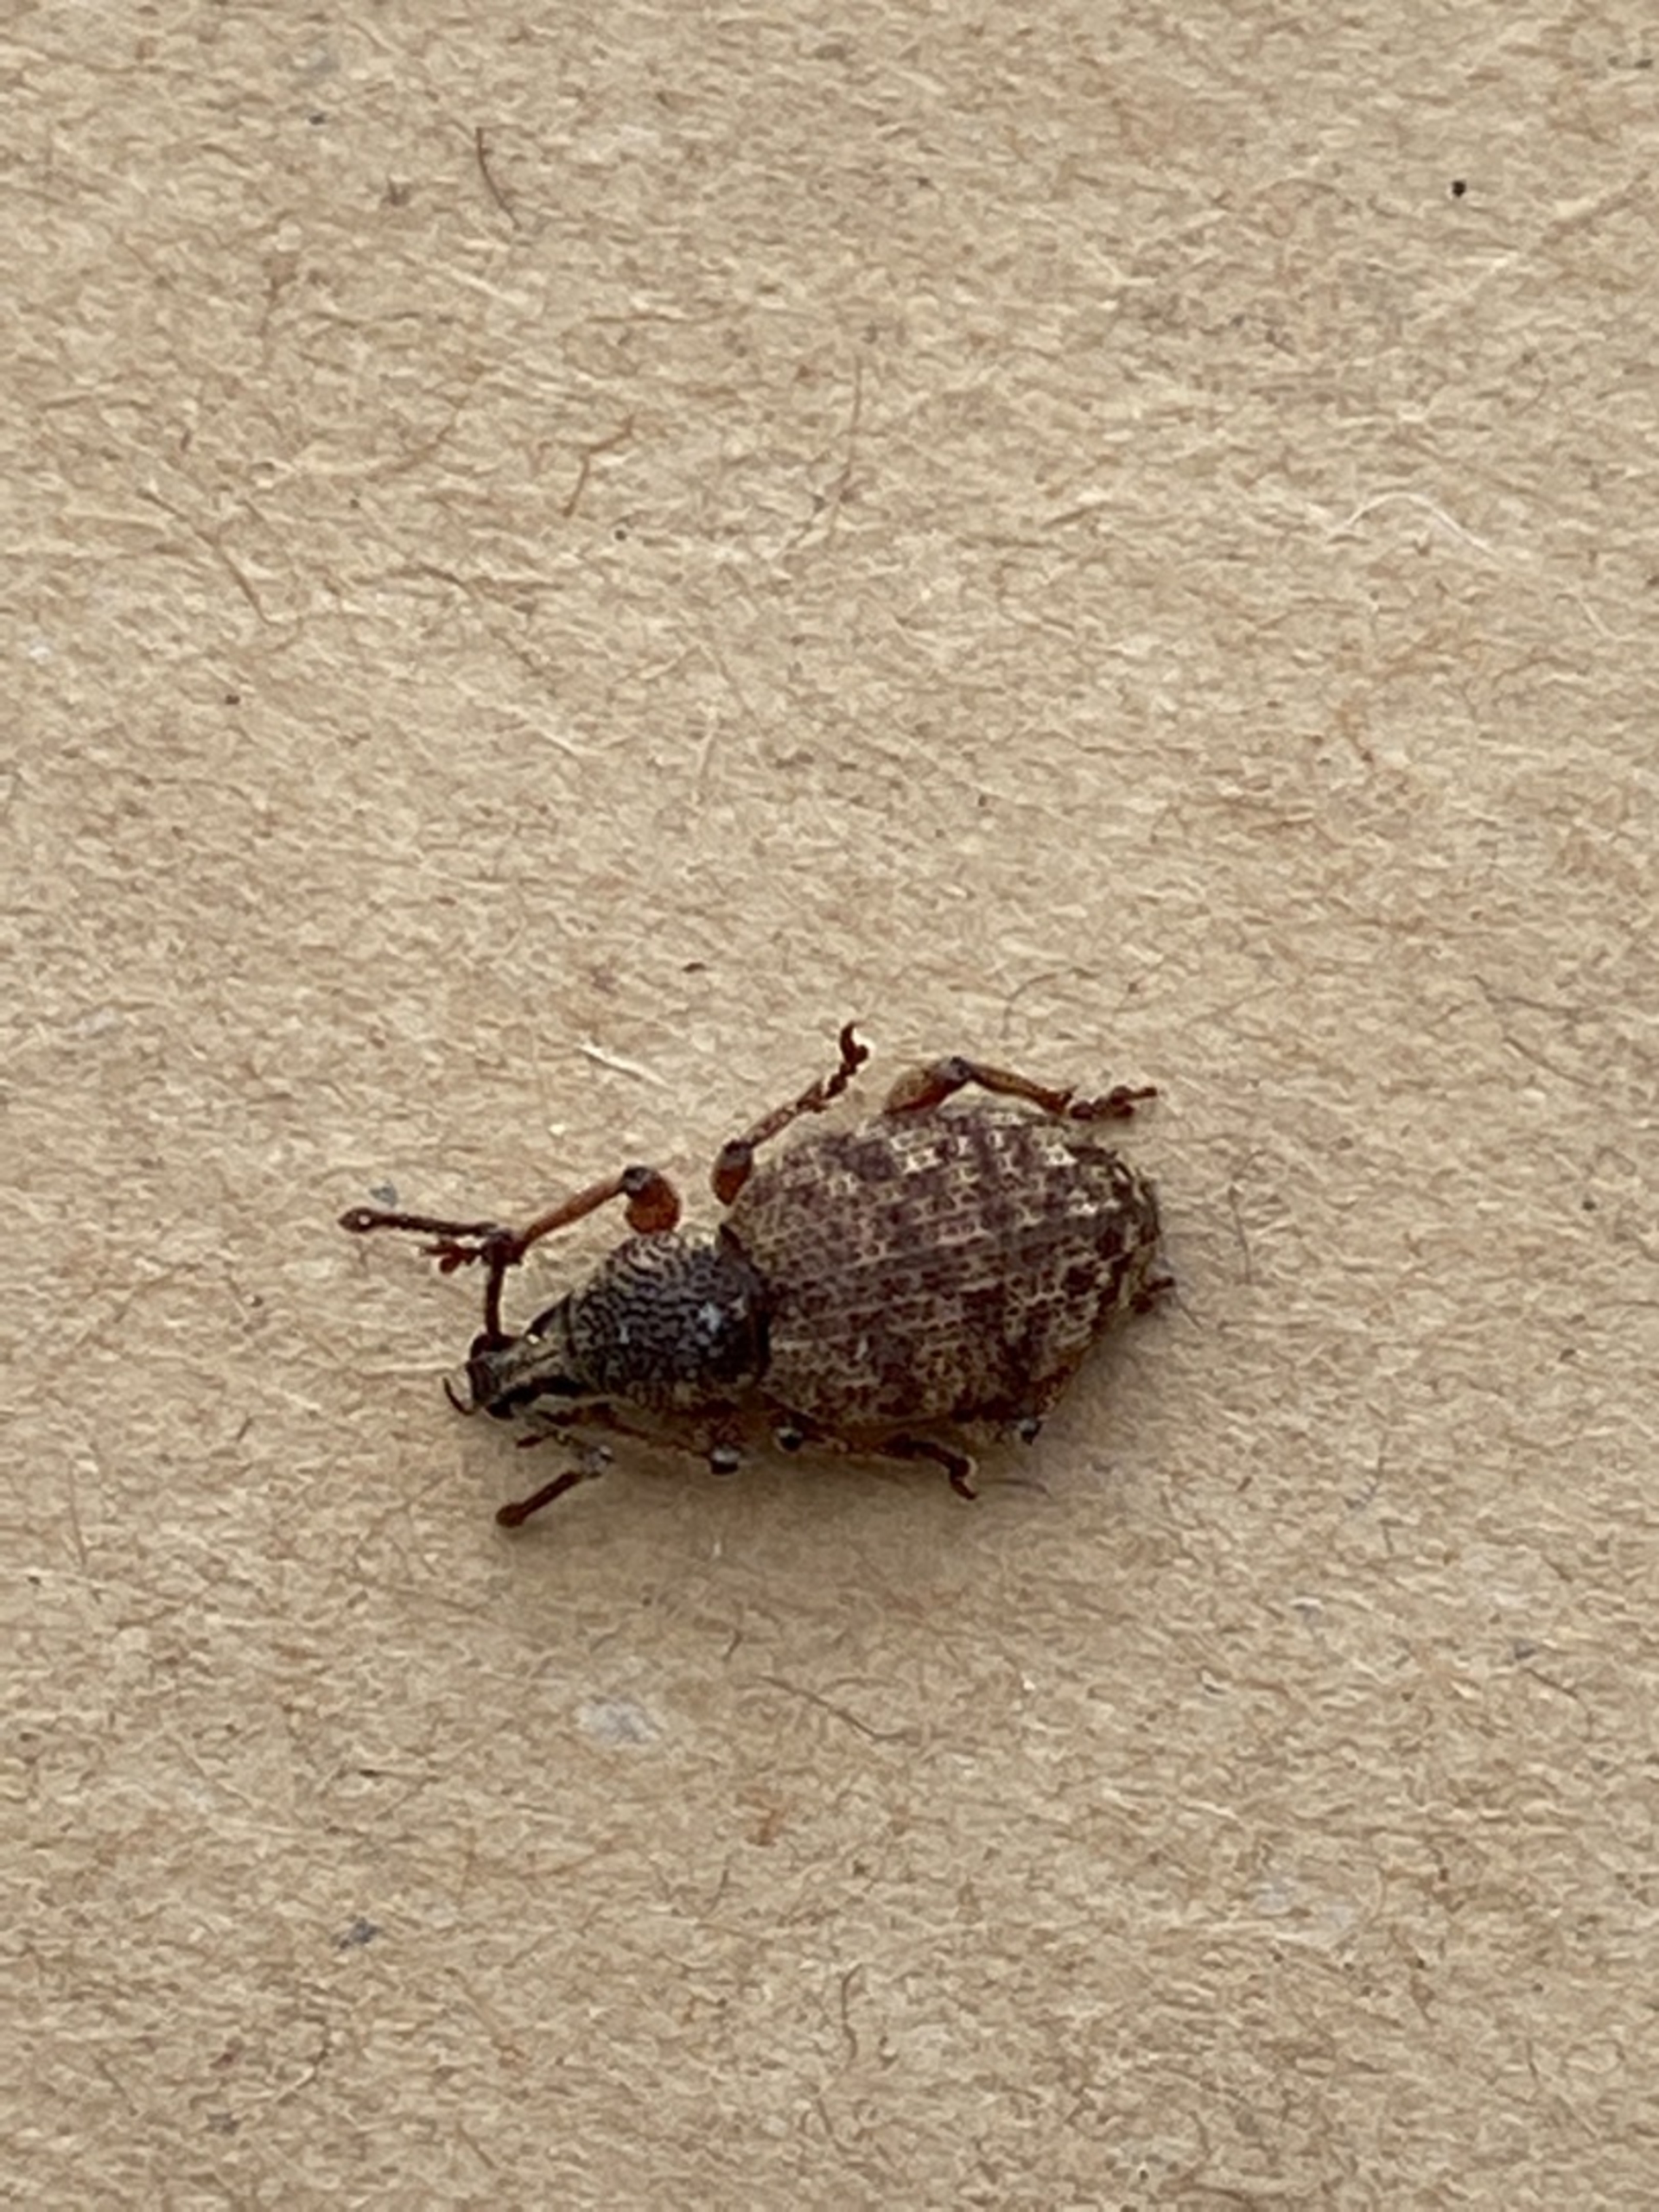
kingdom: Animalia
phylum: Arthropoda
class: Insecta
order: Coleoptera
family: Curculionidae
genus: Otiorhynchus
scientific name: Otiorhynchus singularis
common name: Barkøresnudebille
